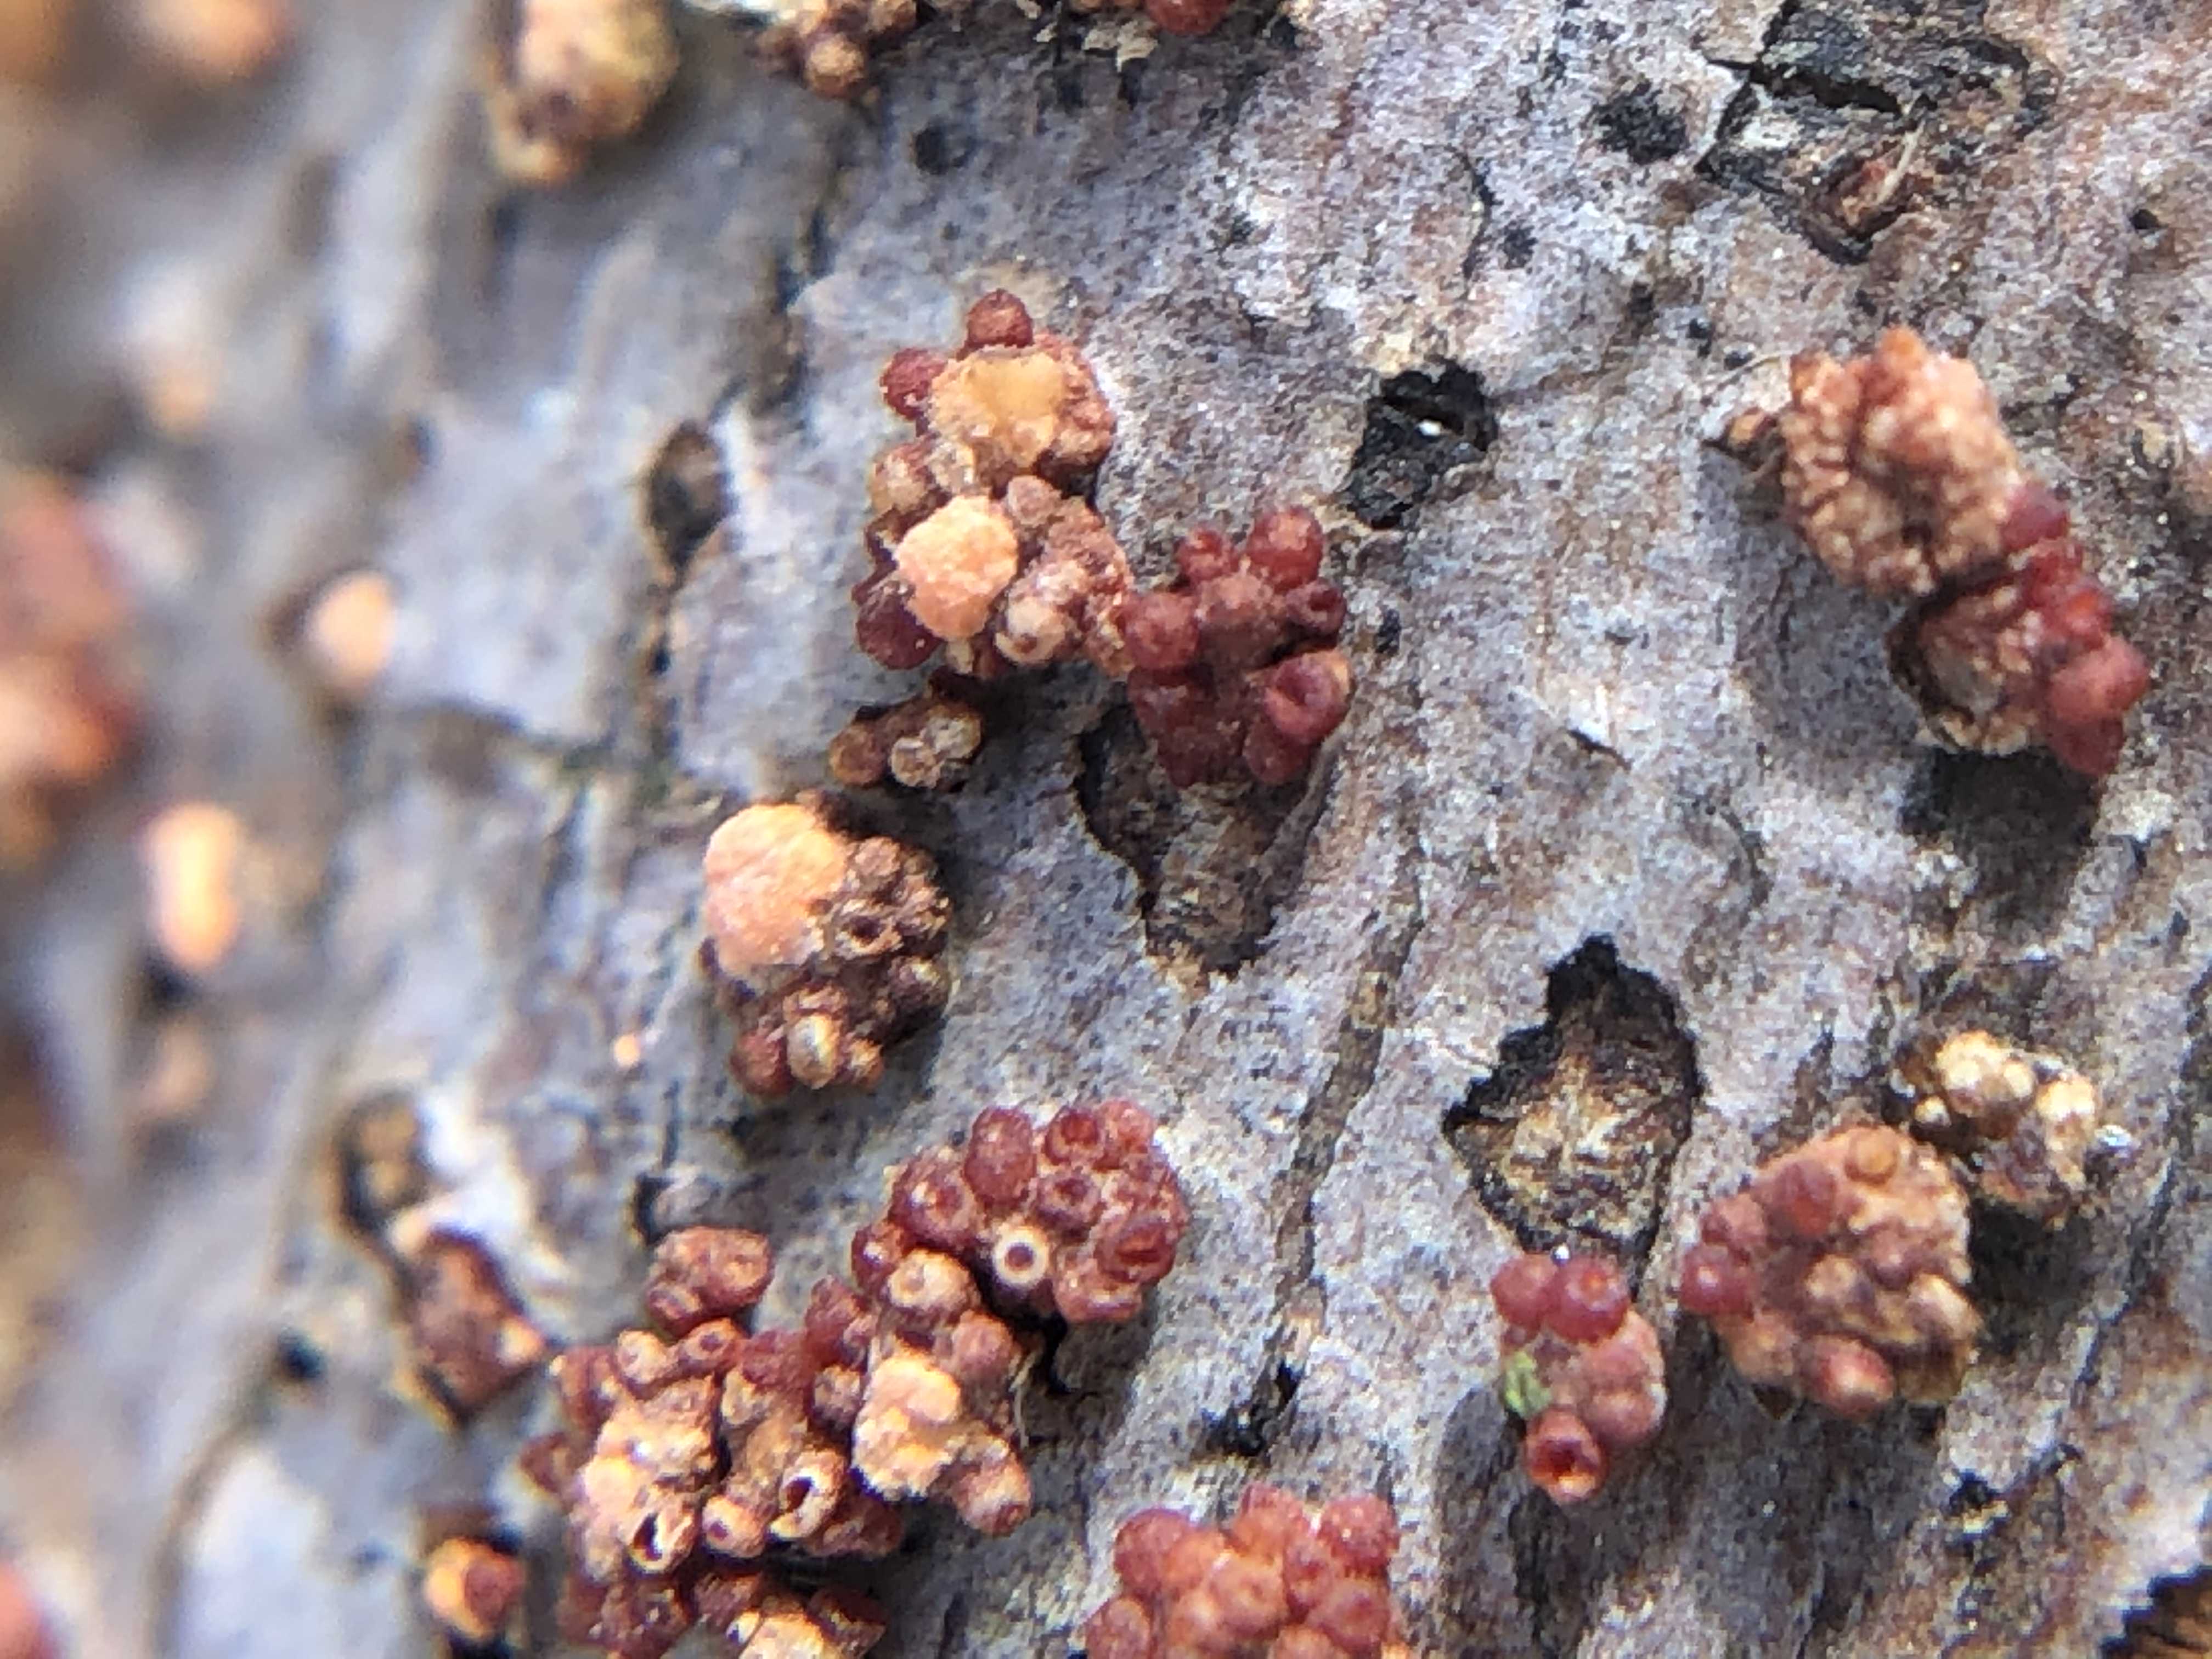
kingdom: Fungi
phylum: Ascomycota
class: Sordariomycetes
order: Hypocreales
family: Nectriaceae
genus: Nectria
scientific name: Nectria cinnabarina
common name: almindelig cinnobersvamp
